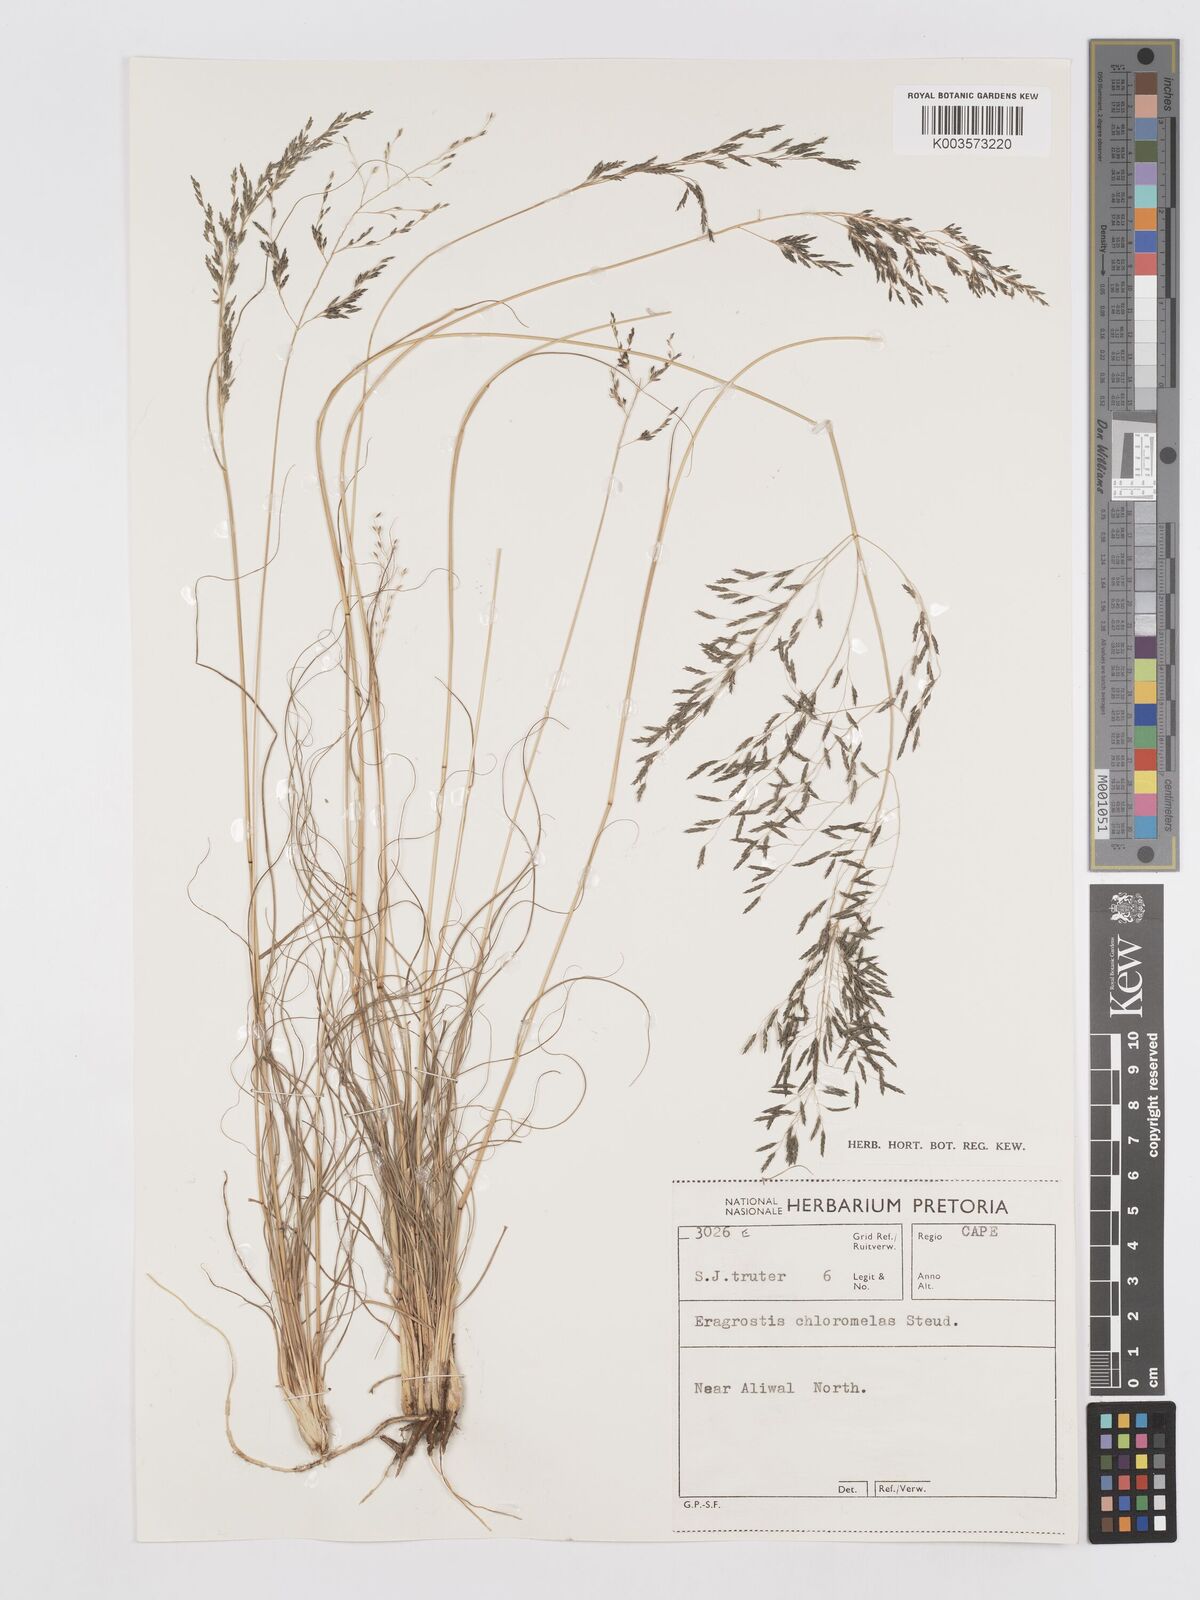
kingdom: Plantae
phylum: Tracheophyta
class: Liliopsida
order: Poales
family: Poaceae
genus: Eragrostis
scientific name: Eragrostis curvula
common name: African love-grass
